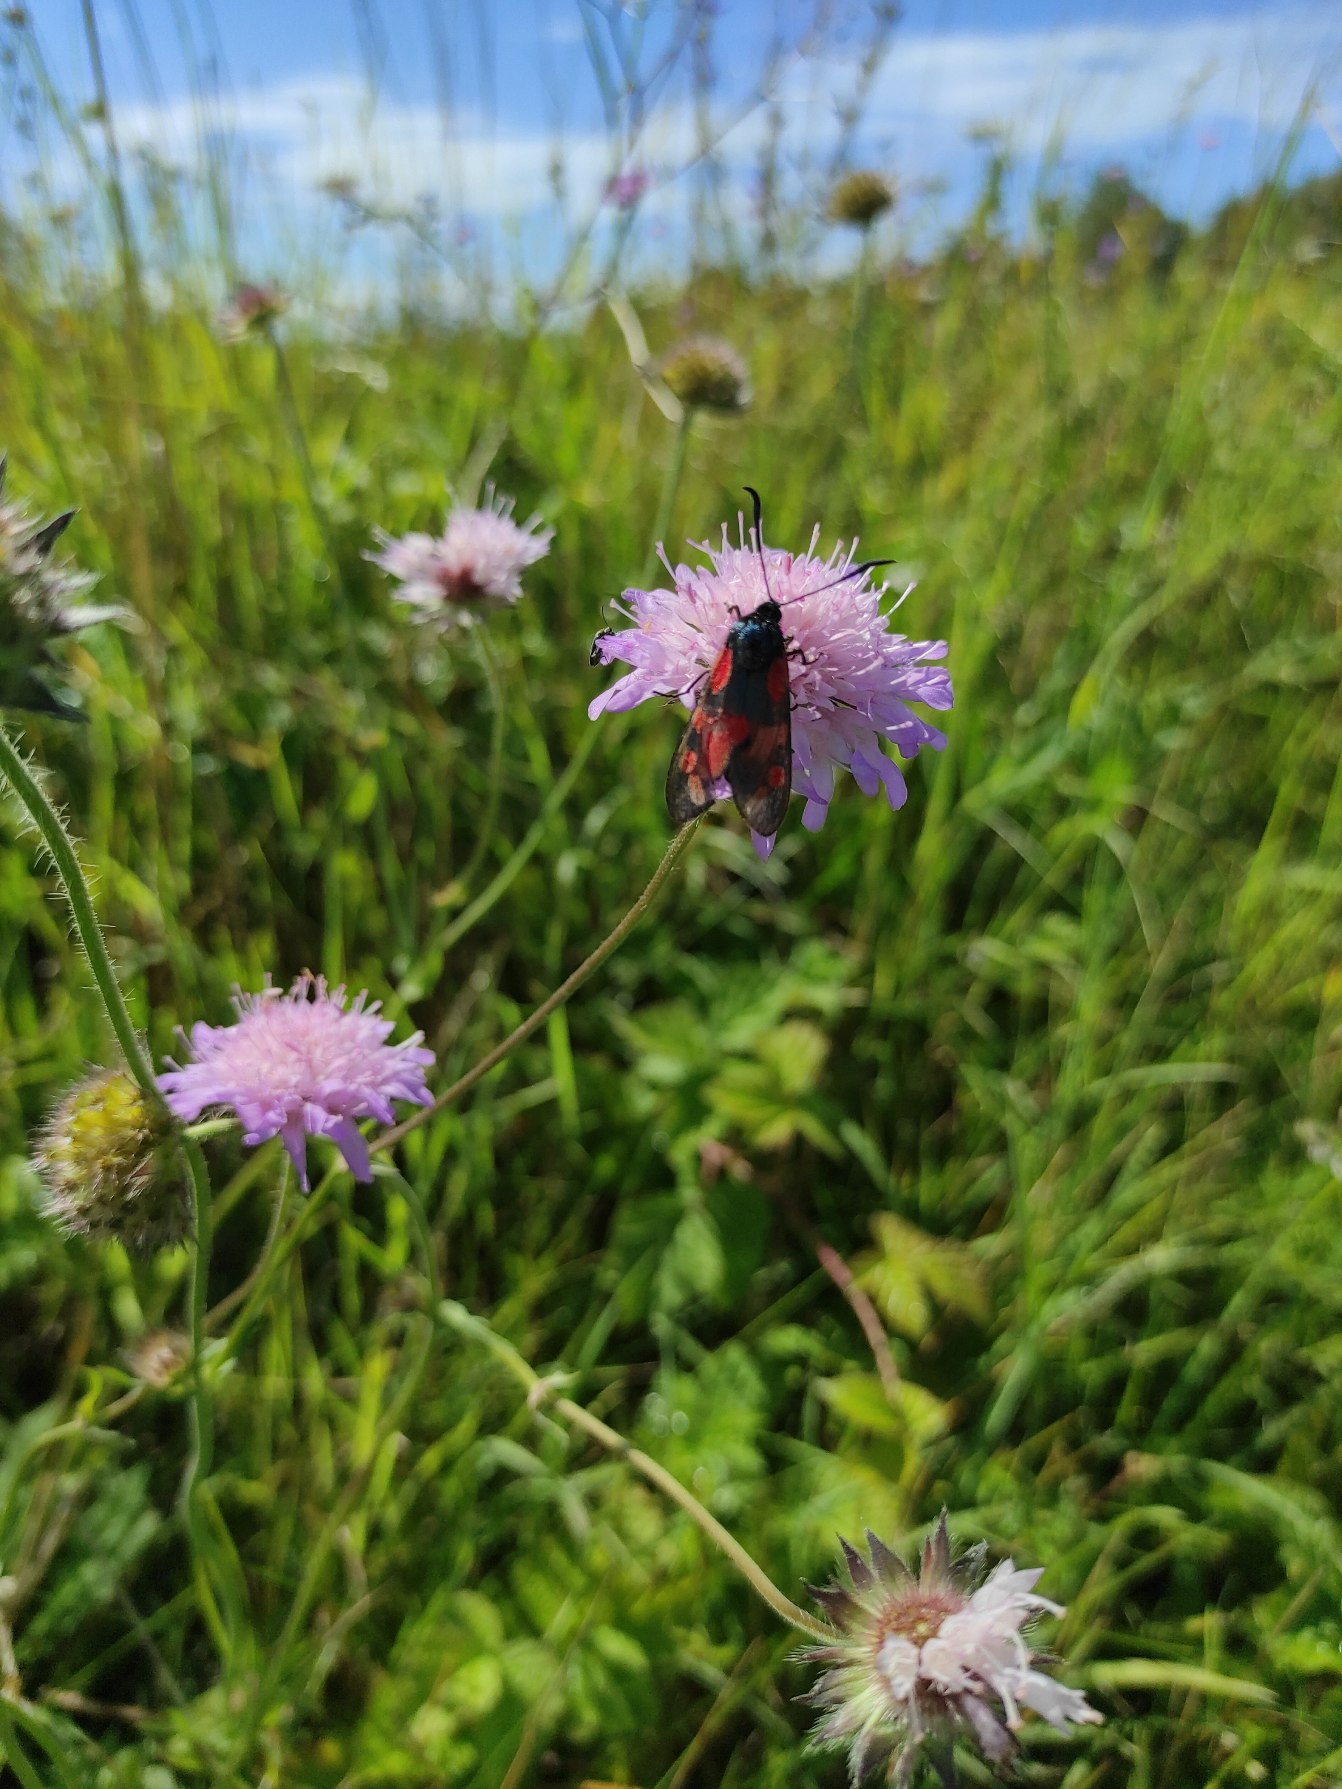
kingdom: Animalia
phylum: Arthropoda
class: Insecta
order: Lepidoptera
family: Zygaenidae
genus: Zygaena
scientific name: Zygaena filipendulae
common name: Seksplettet køllesværmer
